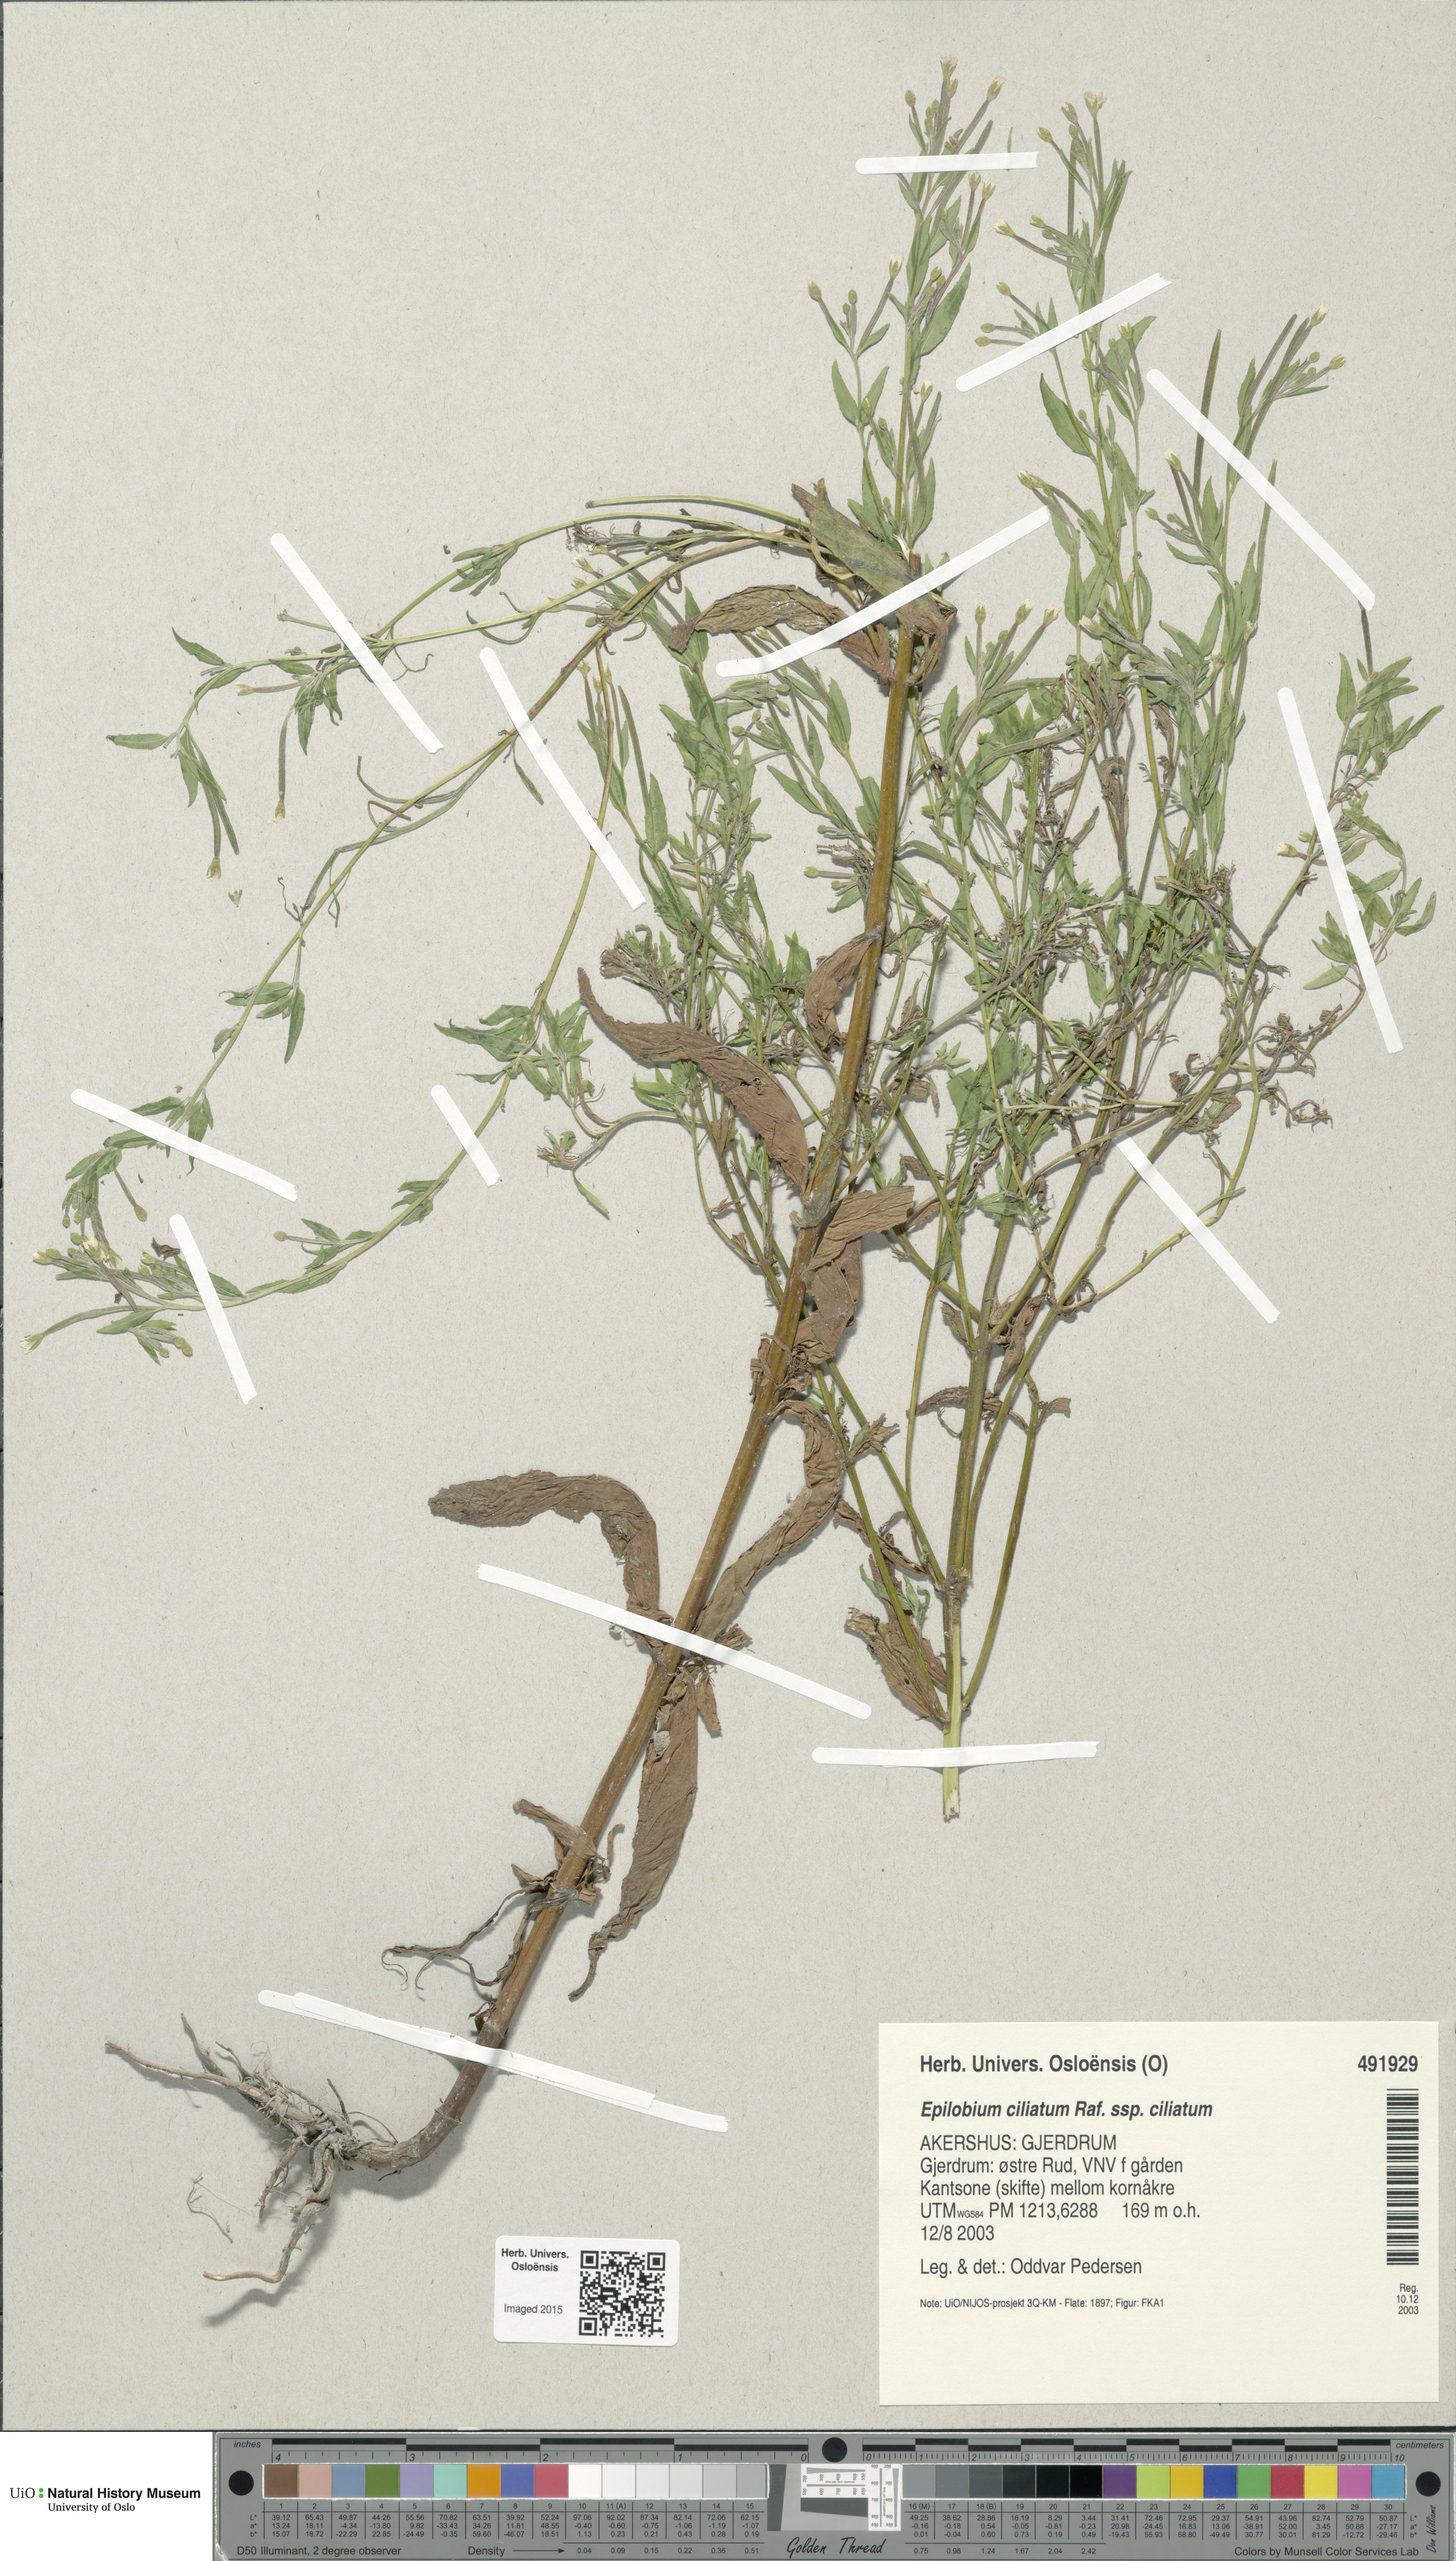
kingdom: Plantae
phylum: Tracheophyta
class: Magnoliopsida
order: Myrtales
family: Onagraceae
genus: Epilobium
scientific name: Epilobium ciliatum
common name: American willowherb
